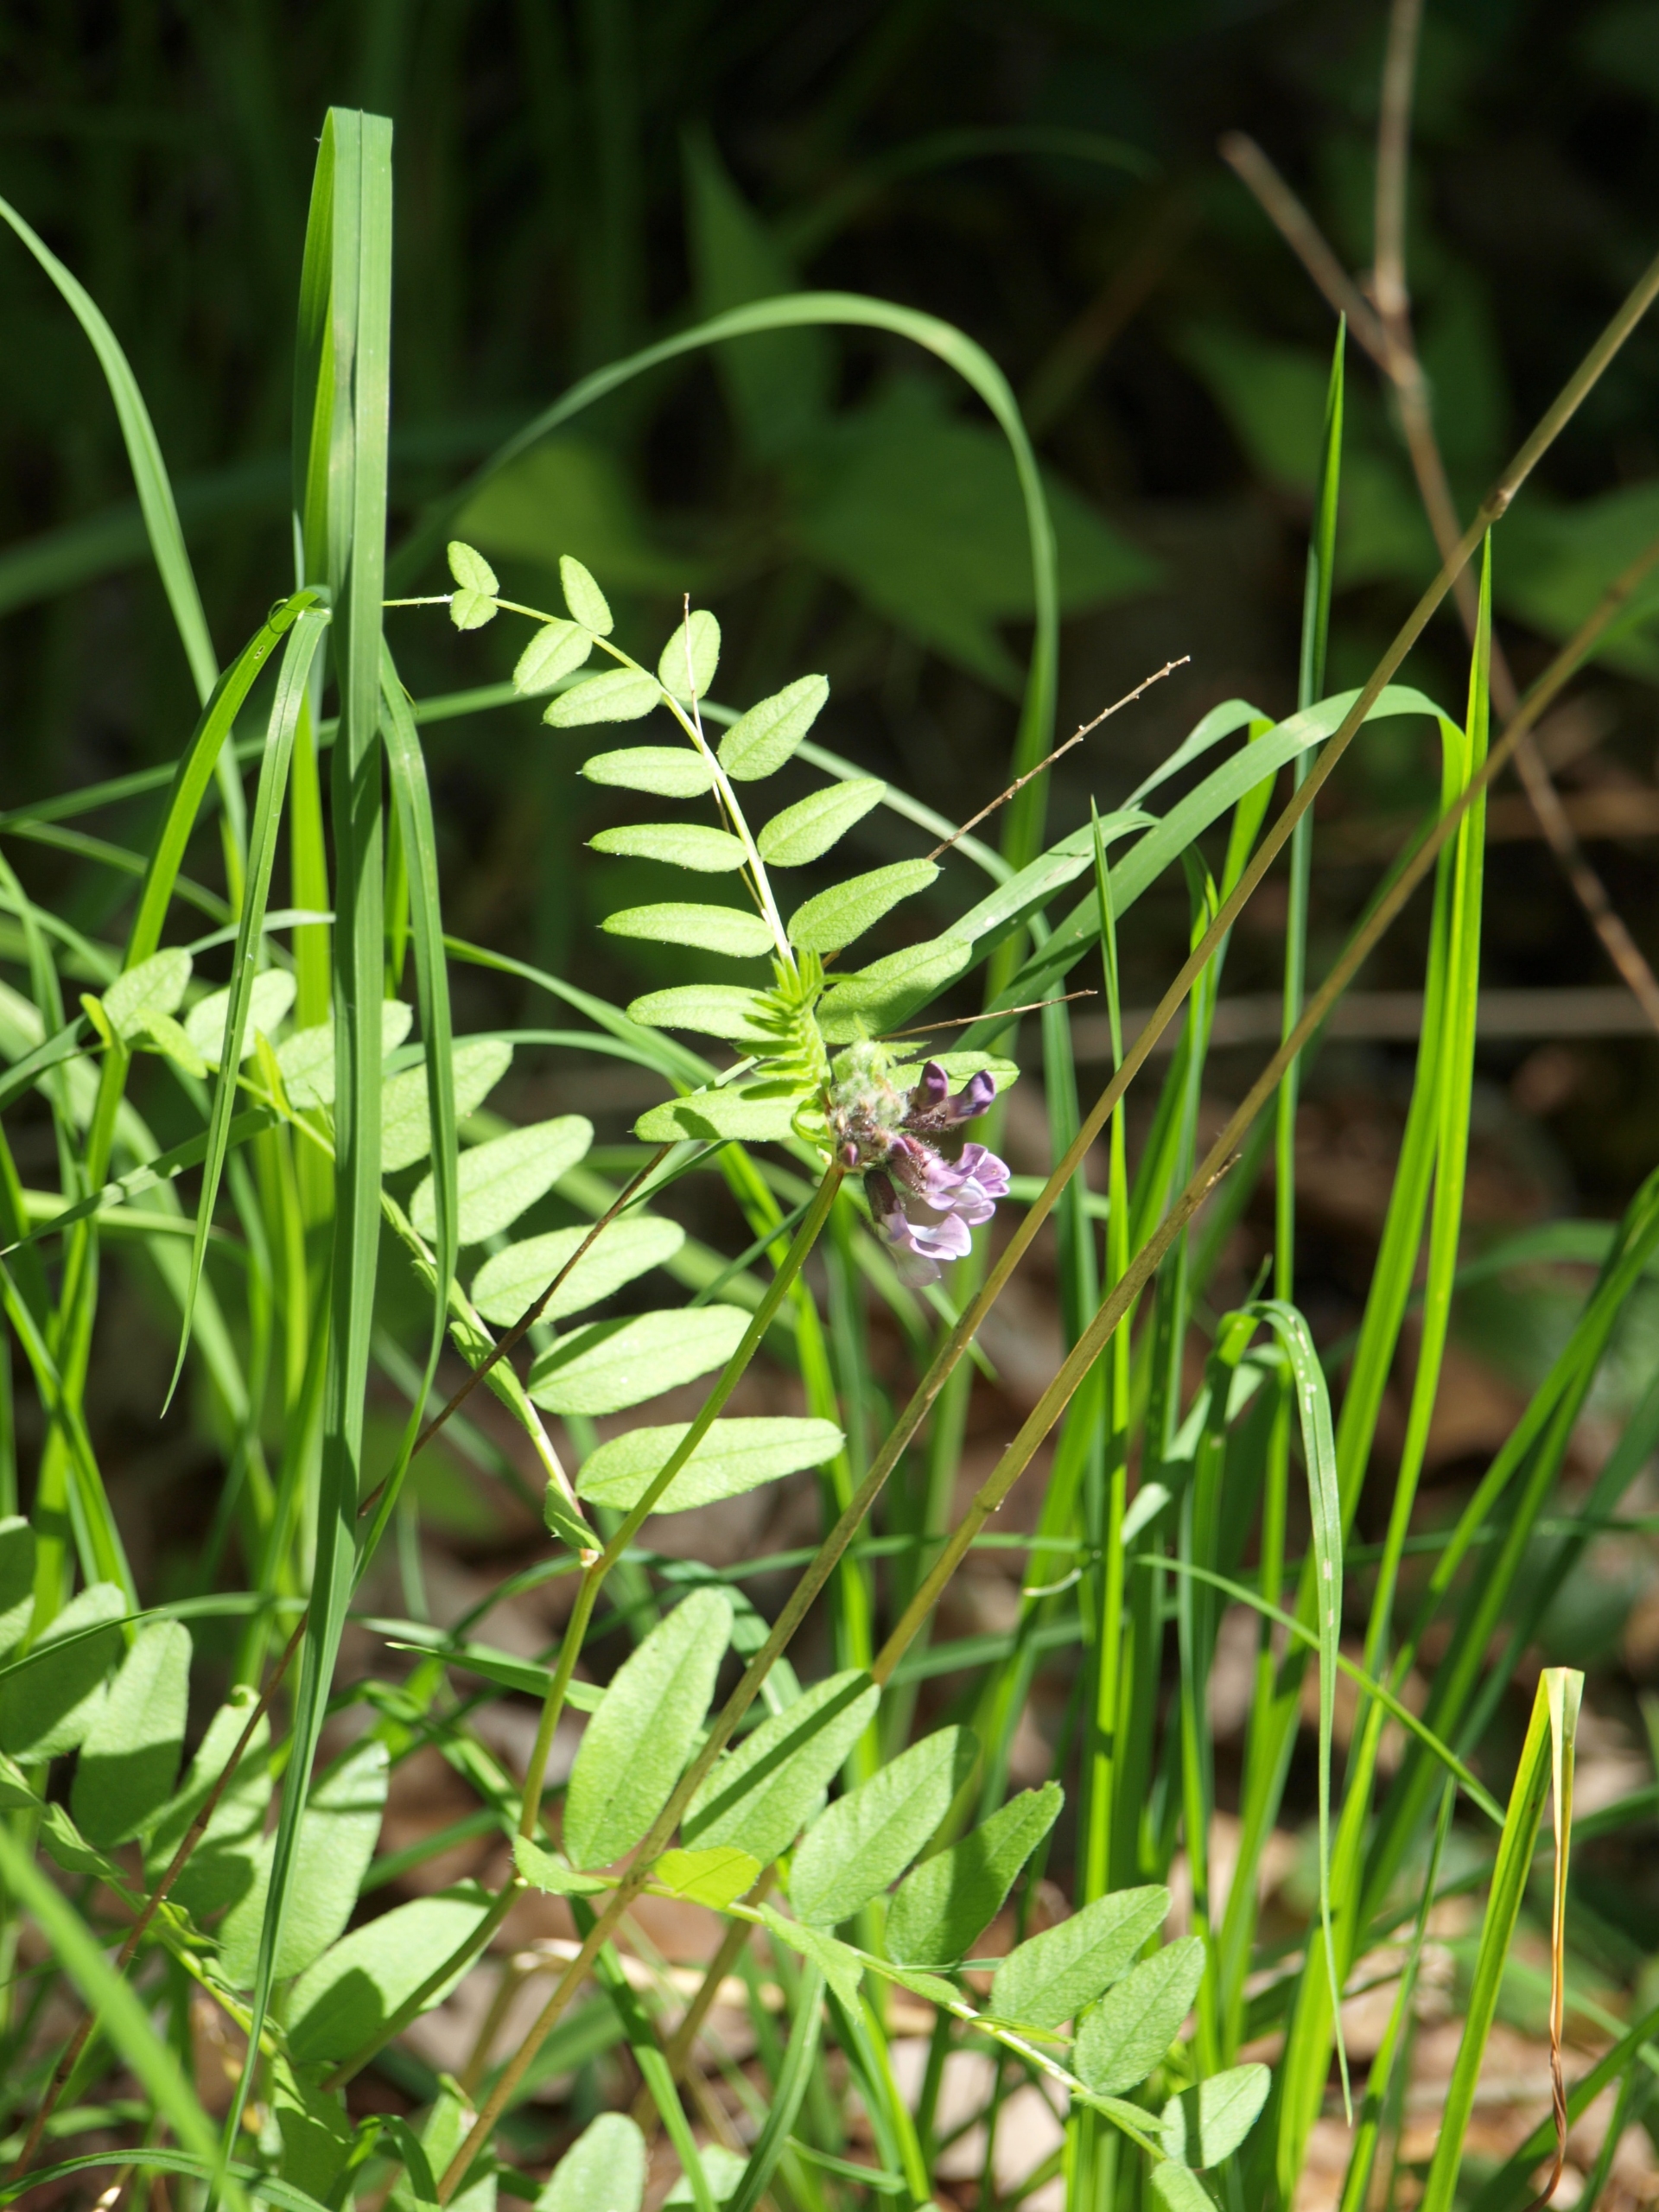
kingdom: Plantae
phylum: Tracheophyta
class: Magnoliopsida
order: Fabales
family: Fabaceae
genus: Vicia
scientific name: Vicia sepium
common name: Gærde-vikke
